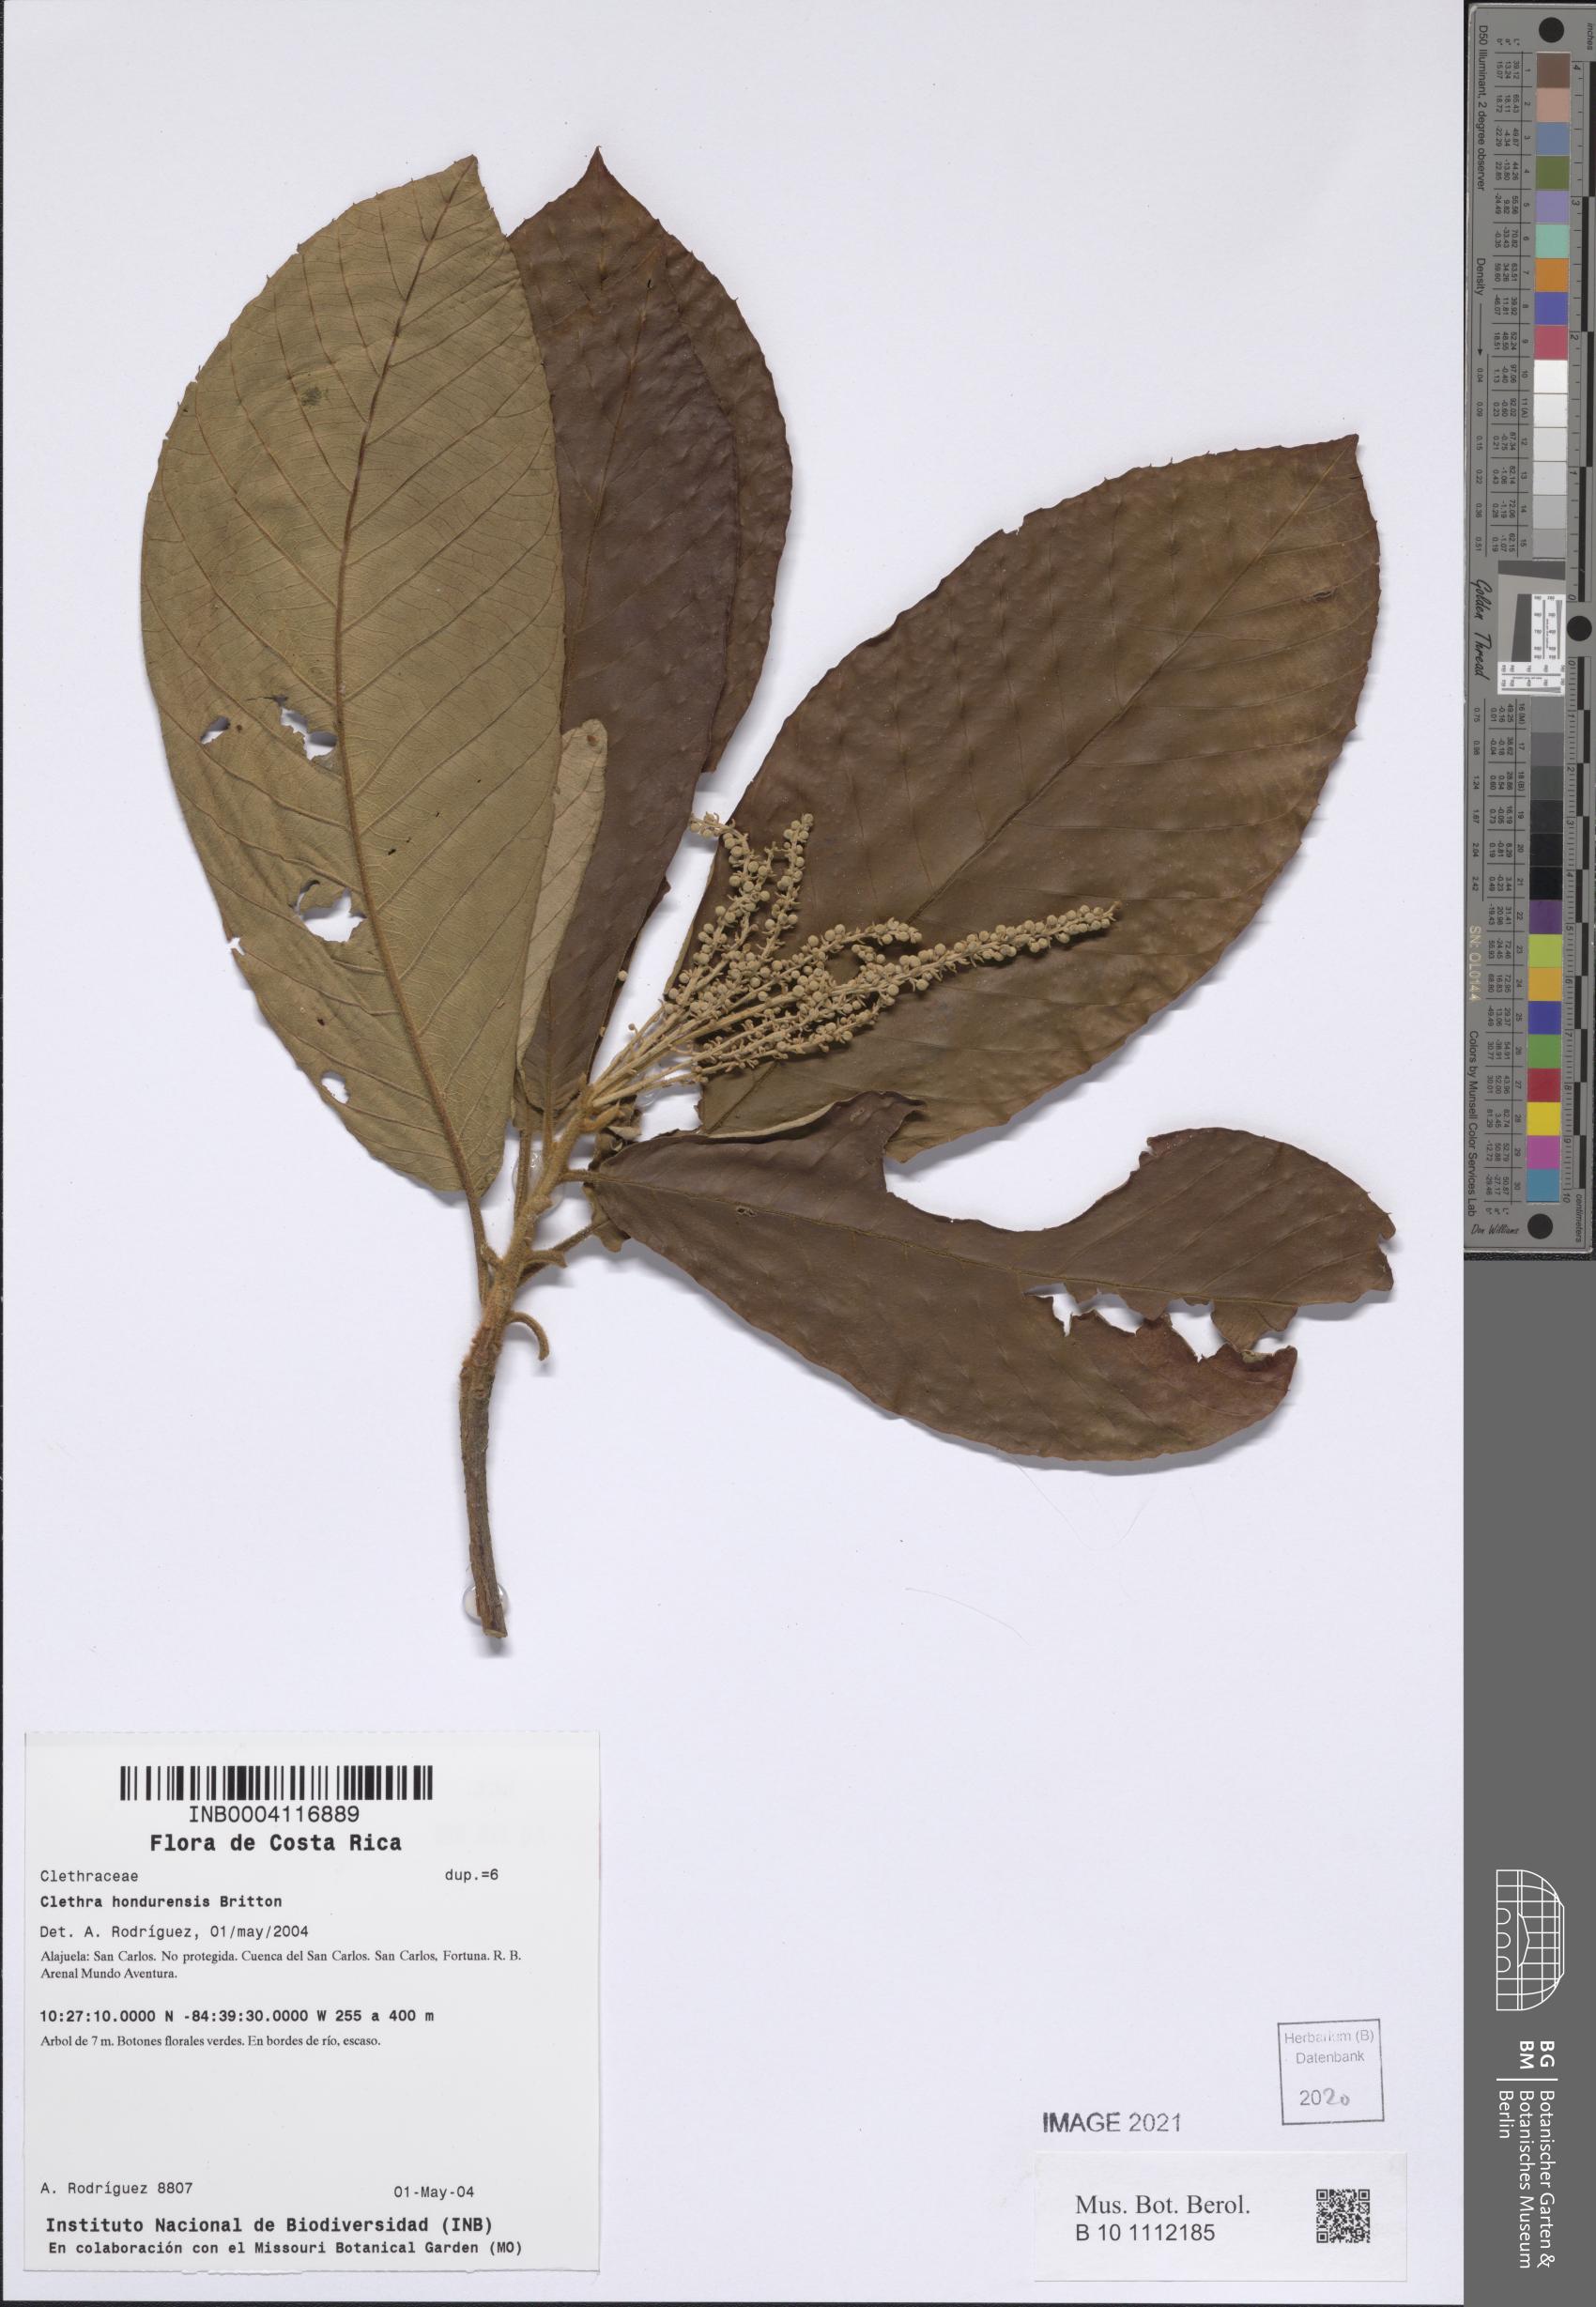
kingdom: Plantae
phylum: Tracheophyta
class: Magnoliopsida
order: Ericales
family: Clethraceae
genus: Clethra
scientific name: Clethra hondurensis
